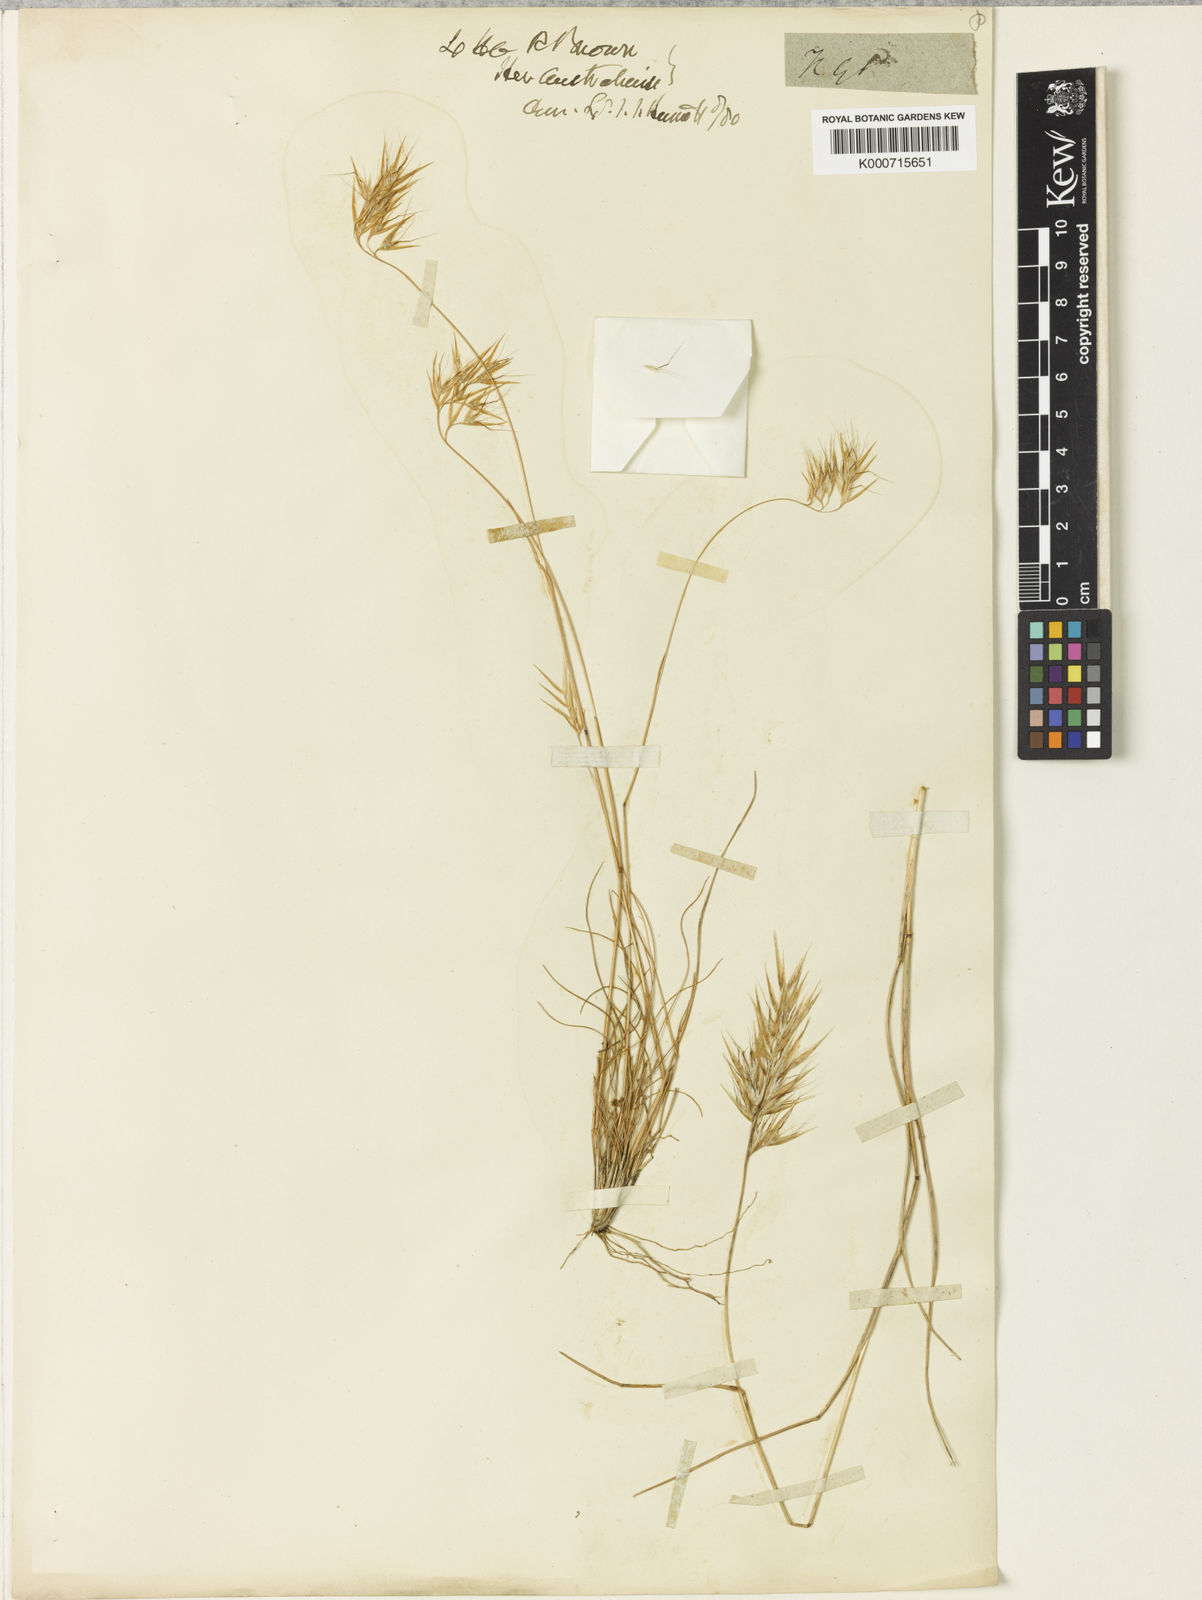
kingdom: Plantae
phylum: Tracheophyta
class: Liliopsida
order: Poales
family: Poaceae
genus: Rytidosperma
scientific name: Rytidosperma setaceum
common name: Small-flower wallaby grass
